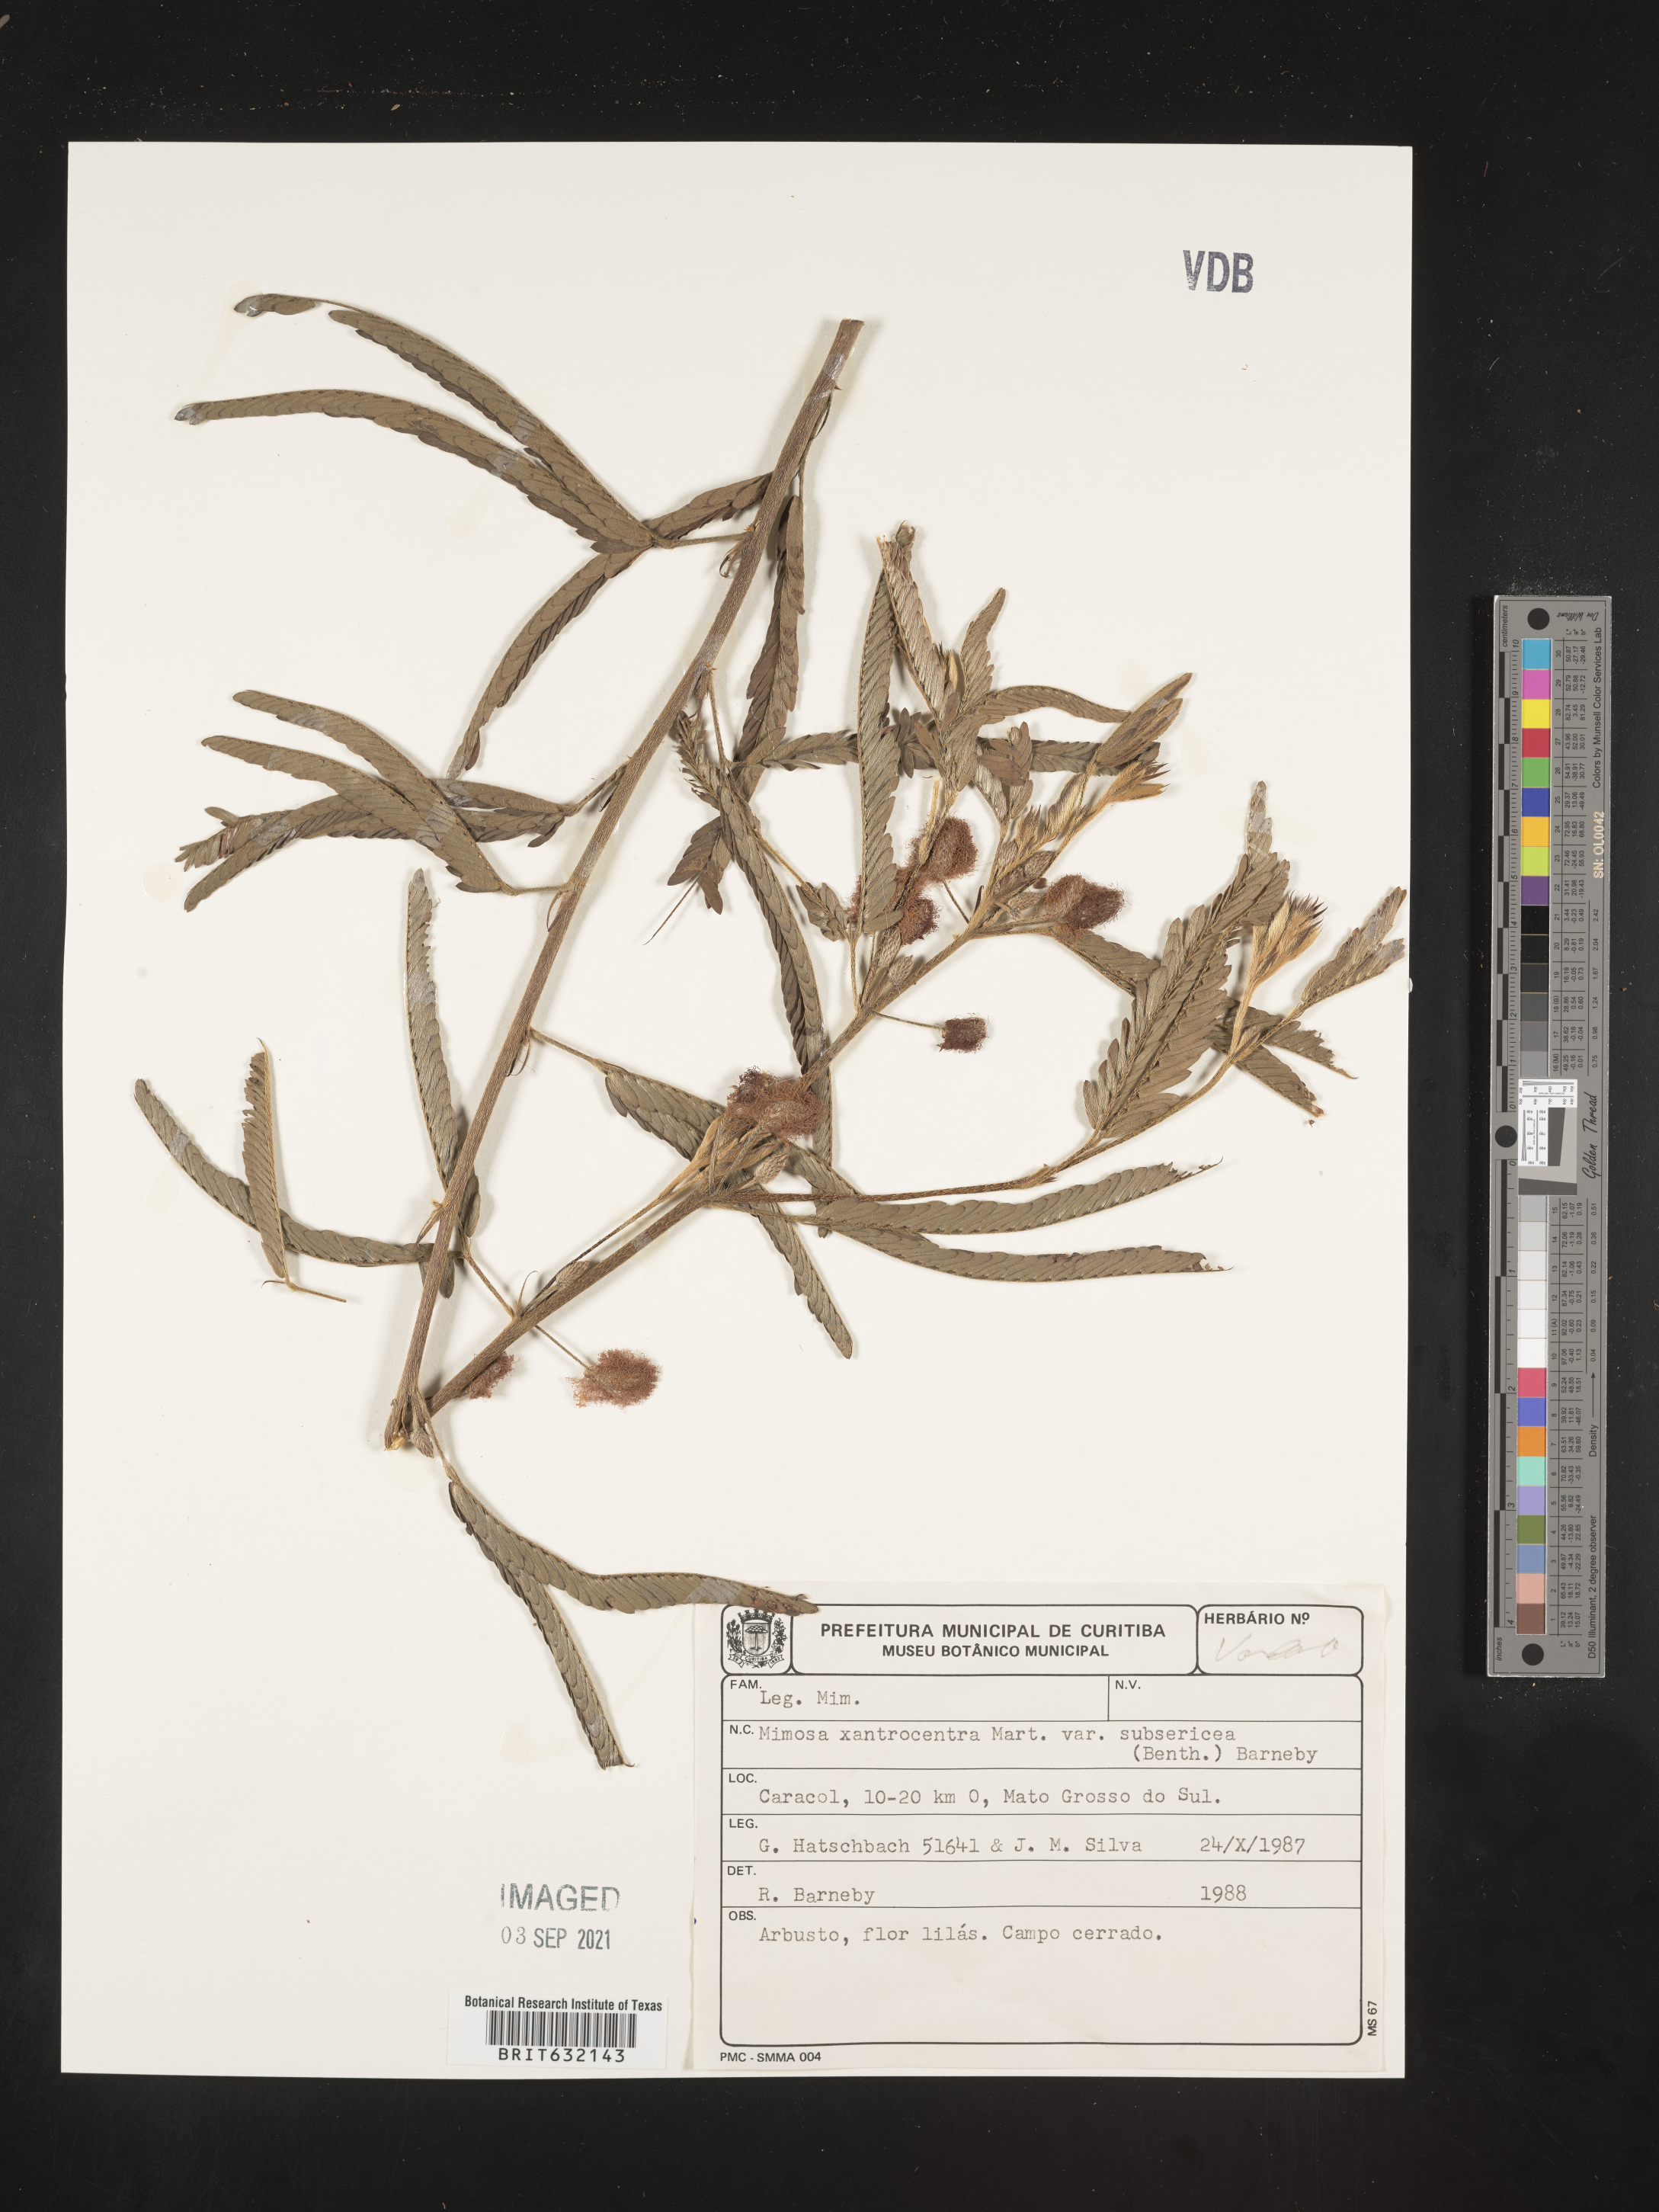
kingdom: Plantae
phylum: Tracheophyta
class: Magnoliopsida
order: Fabales
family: Fabaceae
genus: Mimosa
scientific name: Mimosa
